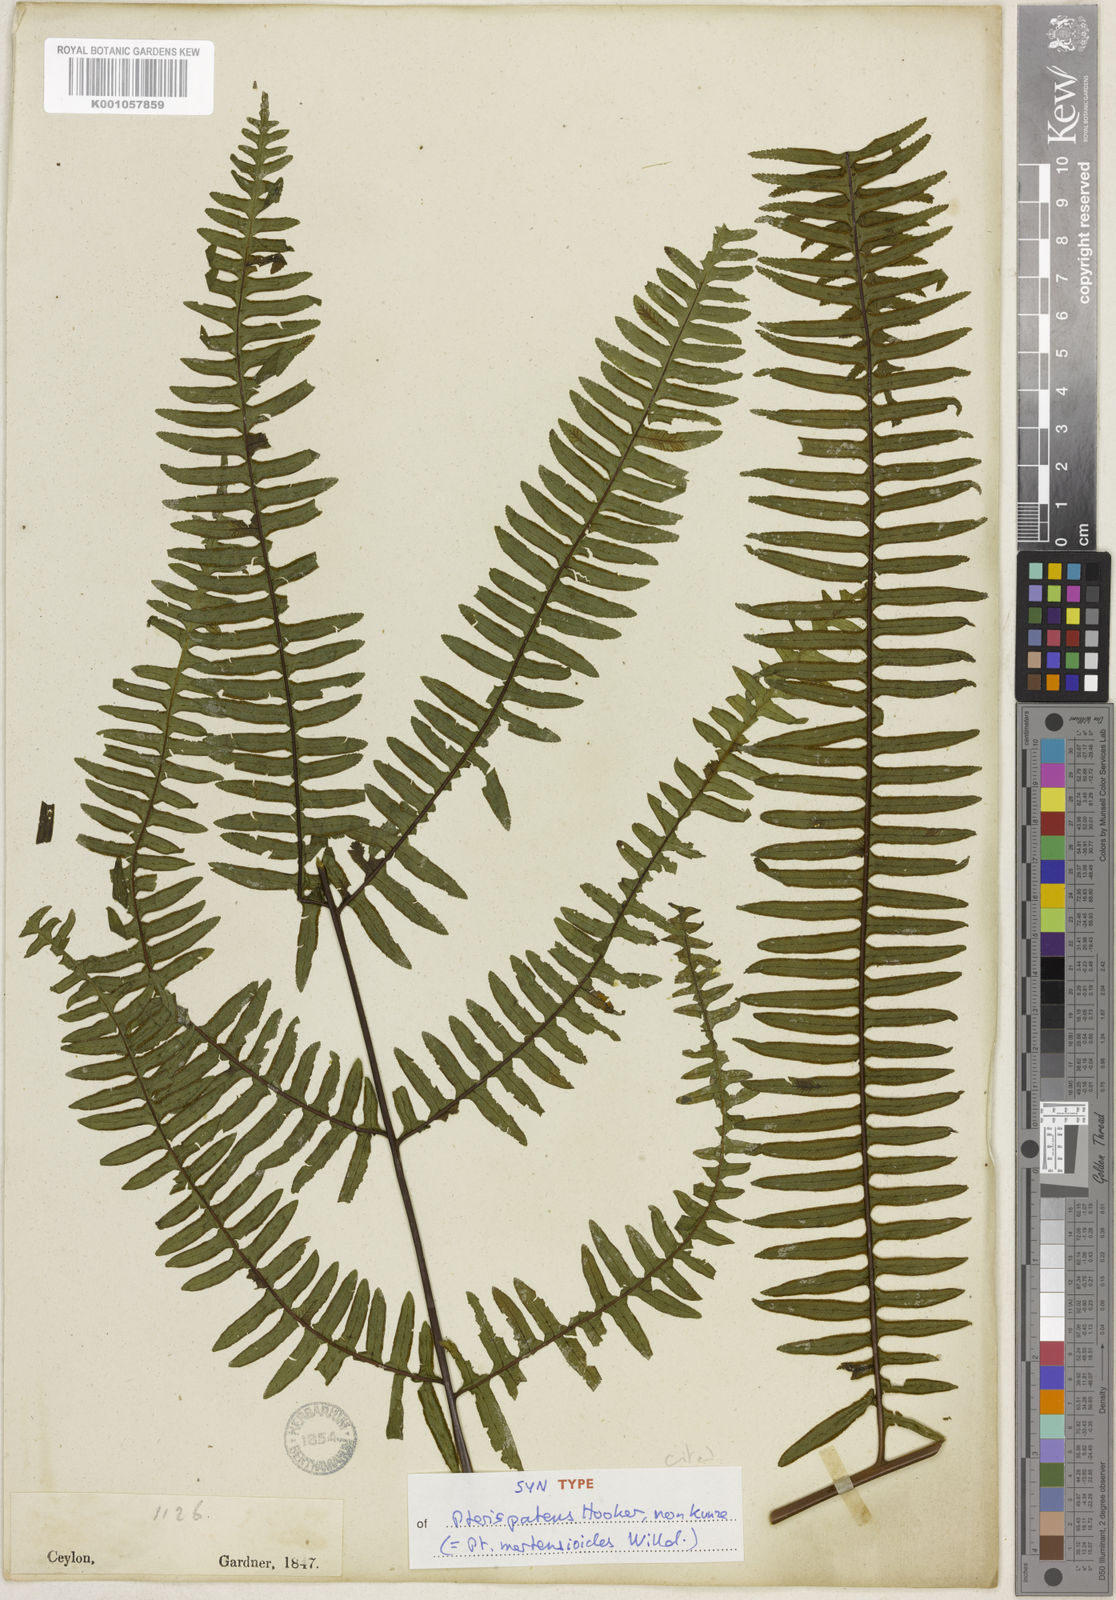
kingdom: Plantae
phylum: Tracheophyta
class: Polypodiopsida
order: Polypodiales
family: Pteridaceae
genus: Pteris
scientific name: Pteris mertensioides
